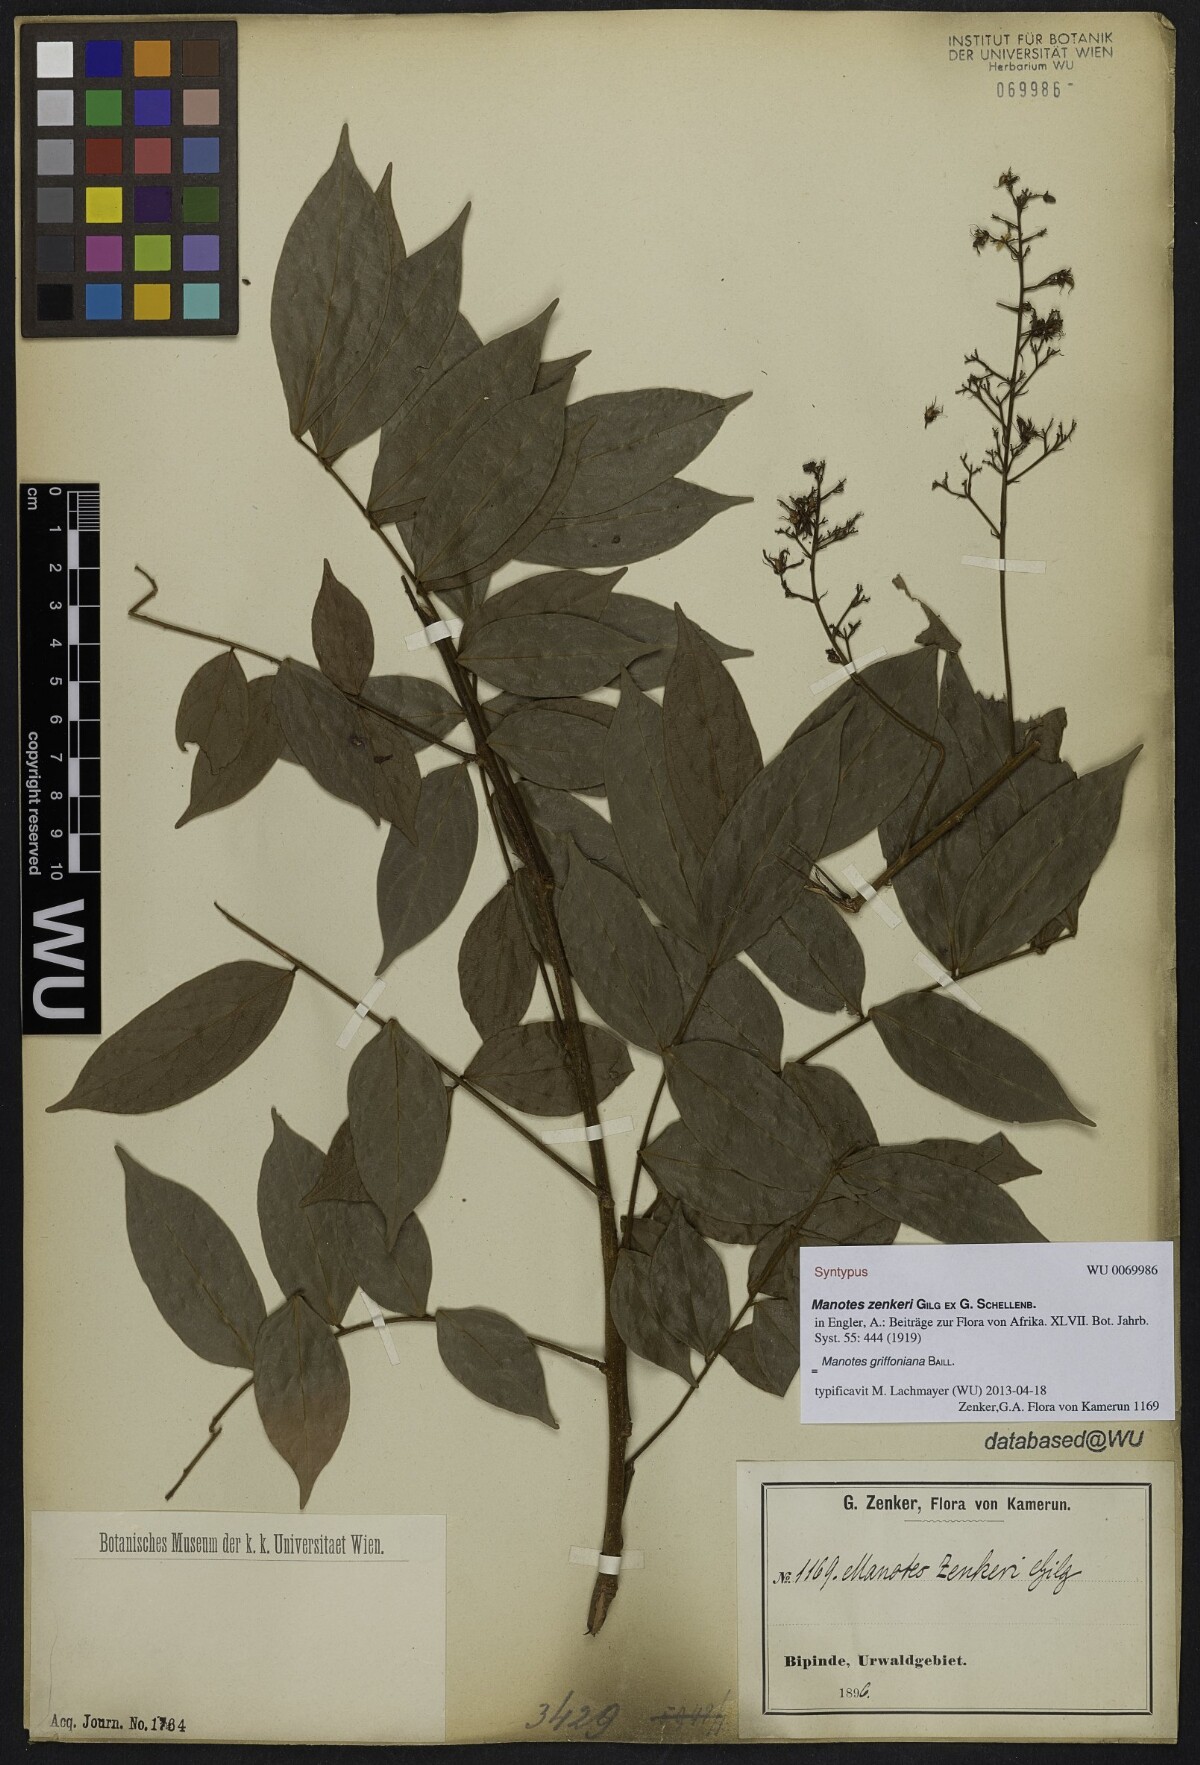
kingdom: Plantae
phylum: Tracheophyta
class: Magnoliopsida
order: Oxalidales
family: Connaraceae
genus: Manotes
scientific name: Manotes griffoniana
